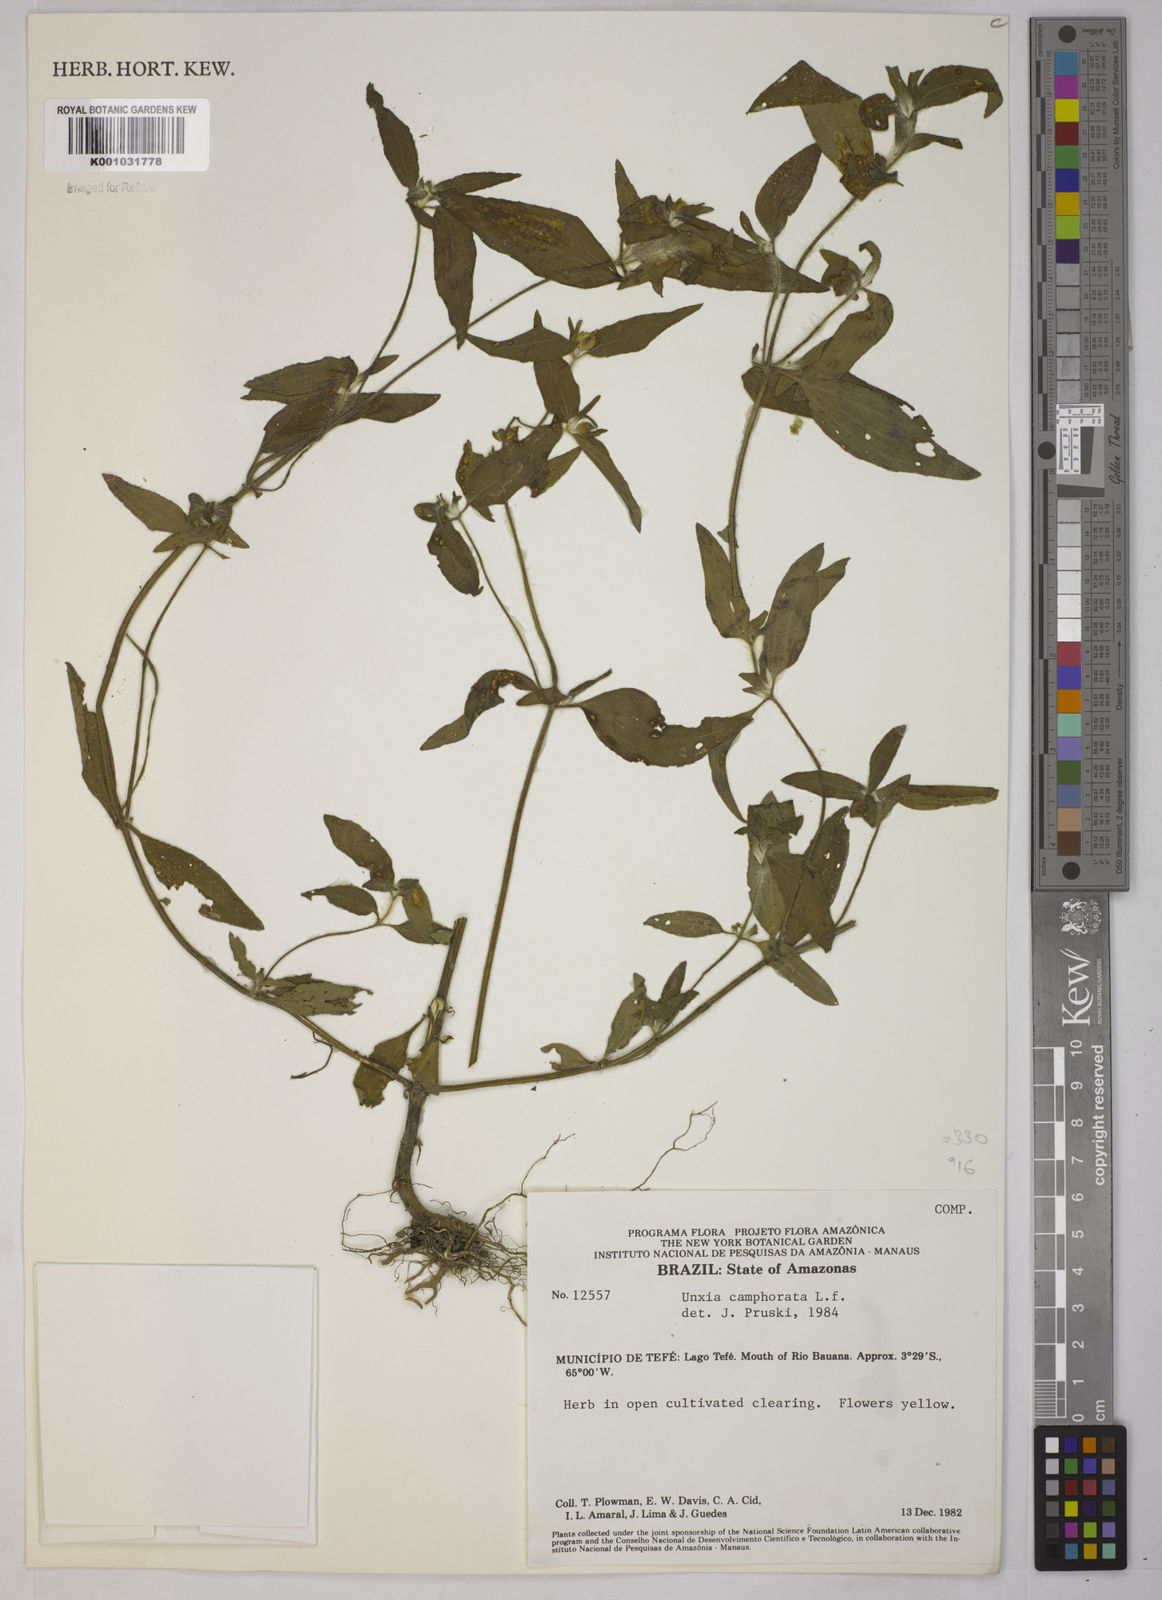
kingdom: Plantae
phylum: Tracheophyta
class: Magnoliopsida
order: Asterales
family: Asteraceae
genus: Unxia
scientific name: Unxia camphorata
